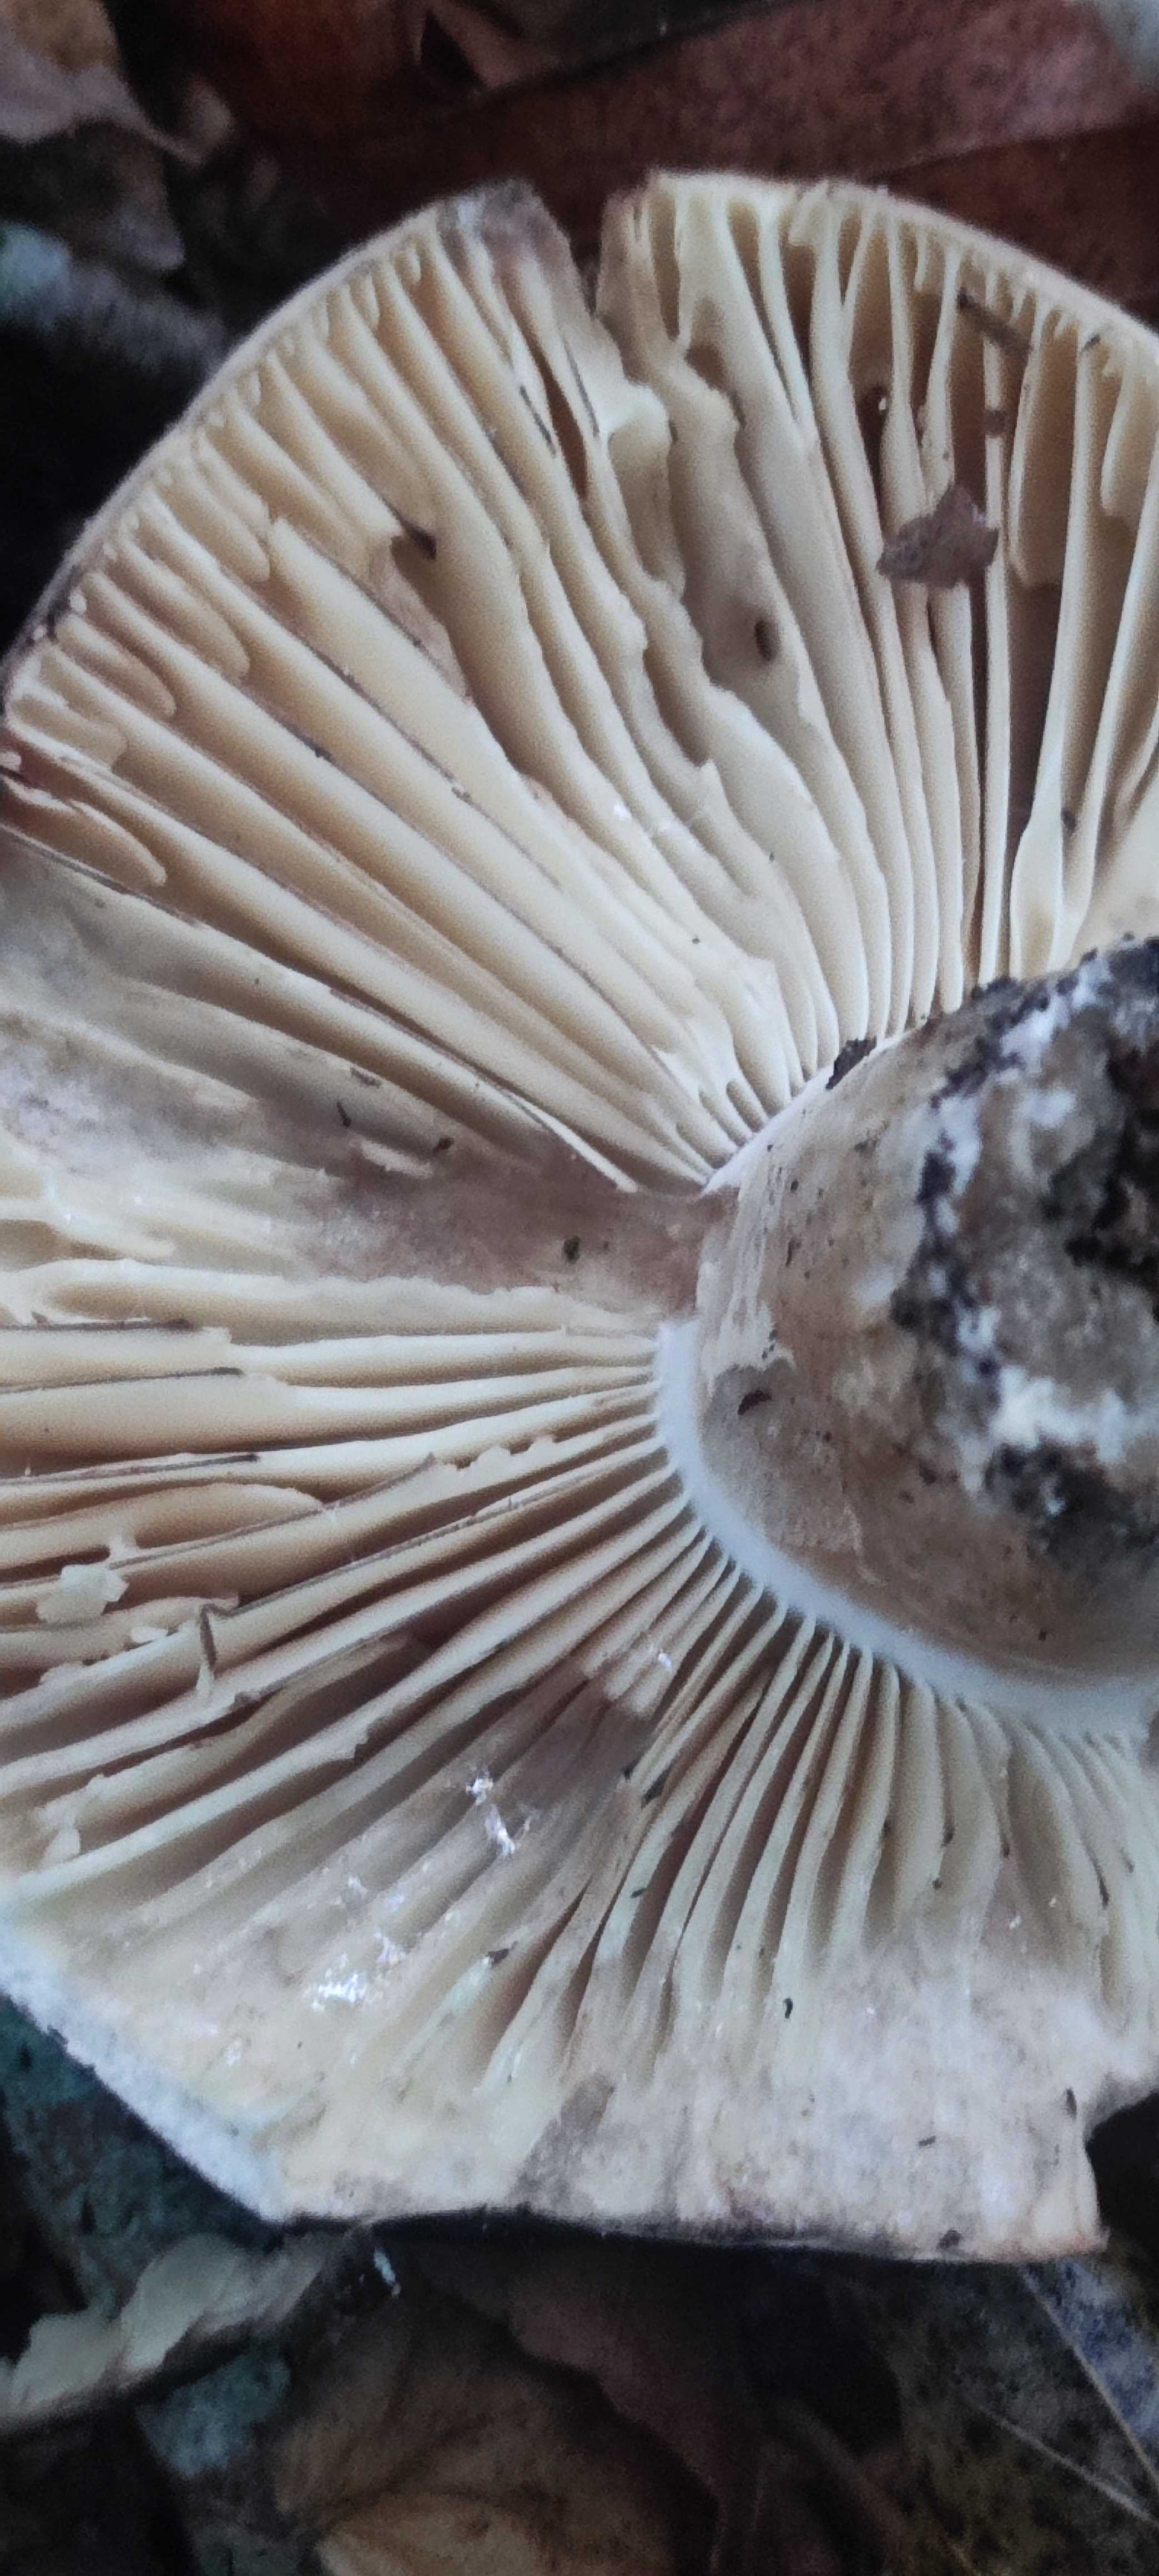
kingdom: Fungi
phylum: Basidiomycota
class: Agaricomycetes
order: Russulales
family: Russulaceae
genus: Russula
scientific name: Russula adusta
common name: sværtende skørhat
